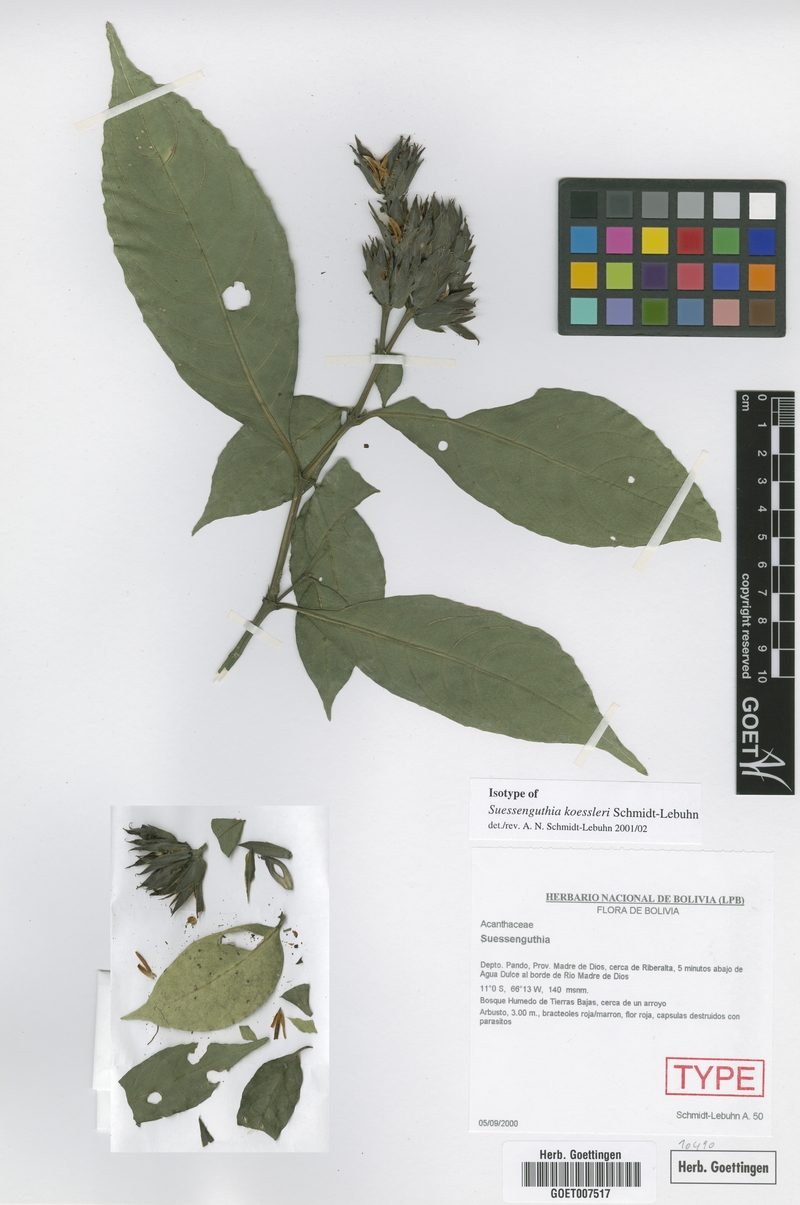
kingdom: Plantae
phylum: Tracheophyta
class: Magnoliopsida
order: Lamiales
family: Acanthaceae
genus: Suessenguthia
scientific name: Suessenguthia koessleri
